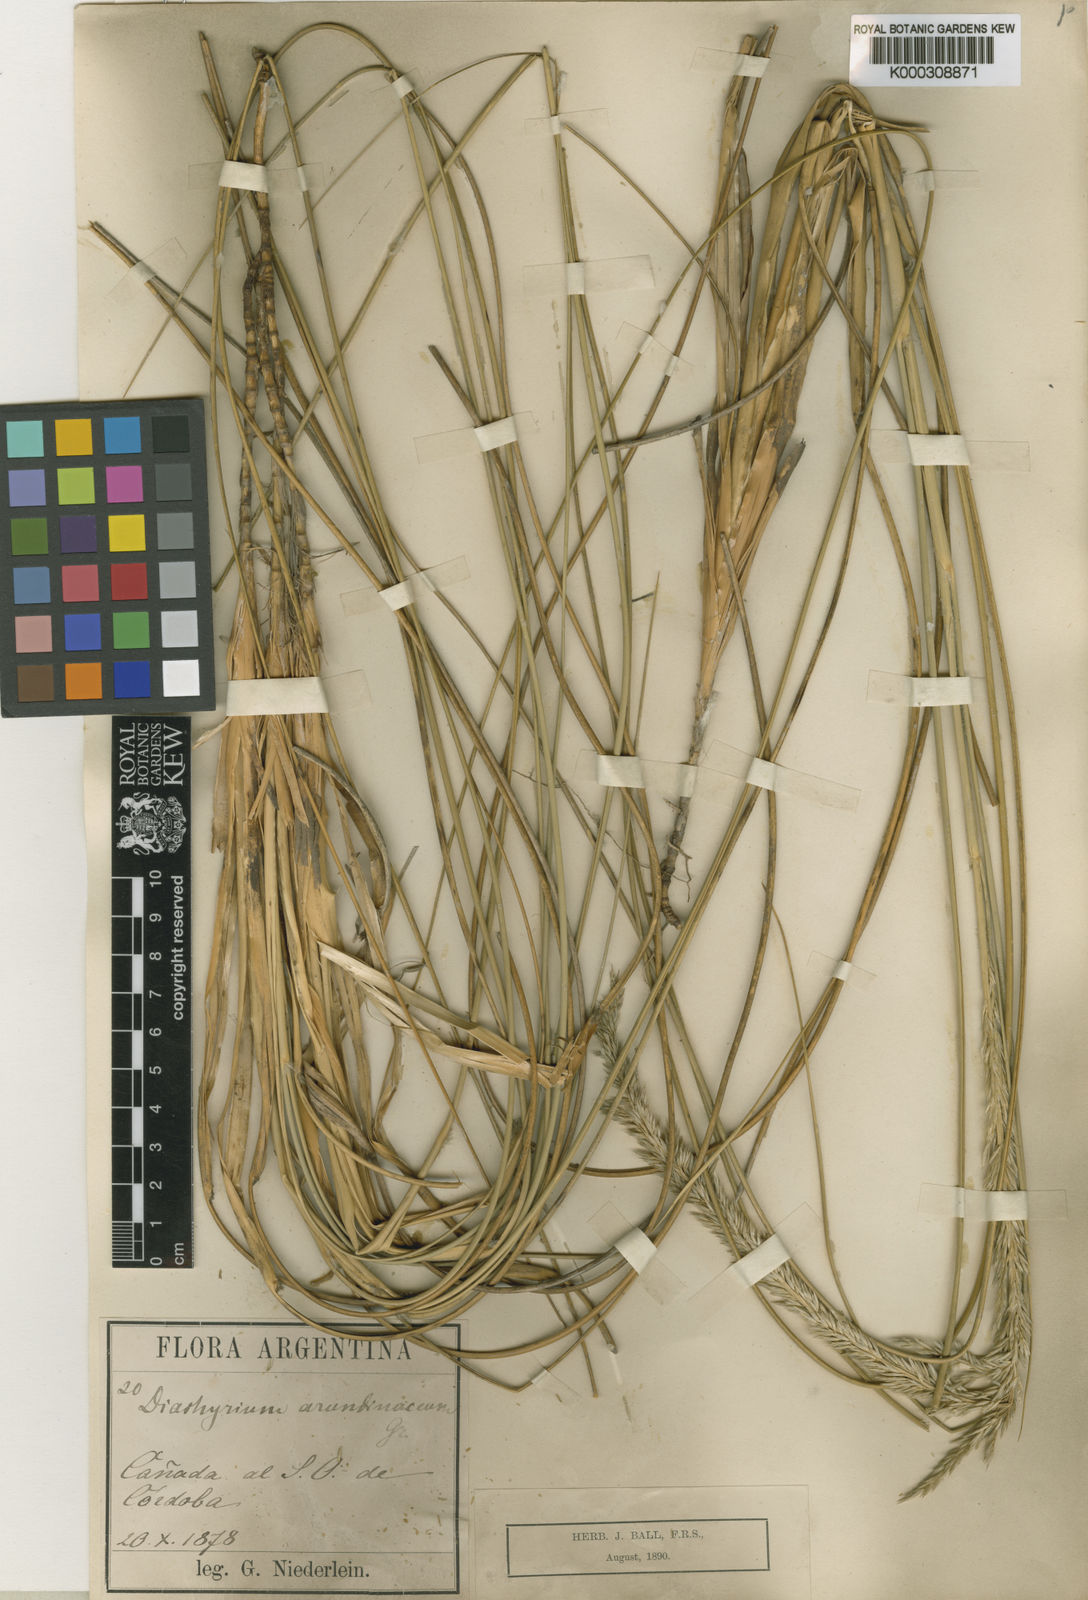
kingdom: Plantae
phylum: Tracheophyta
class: Liliopsida
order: Poales
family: Poaceae
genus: Sporobolus
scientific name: Sporobolus rigens
